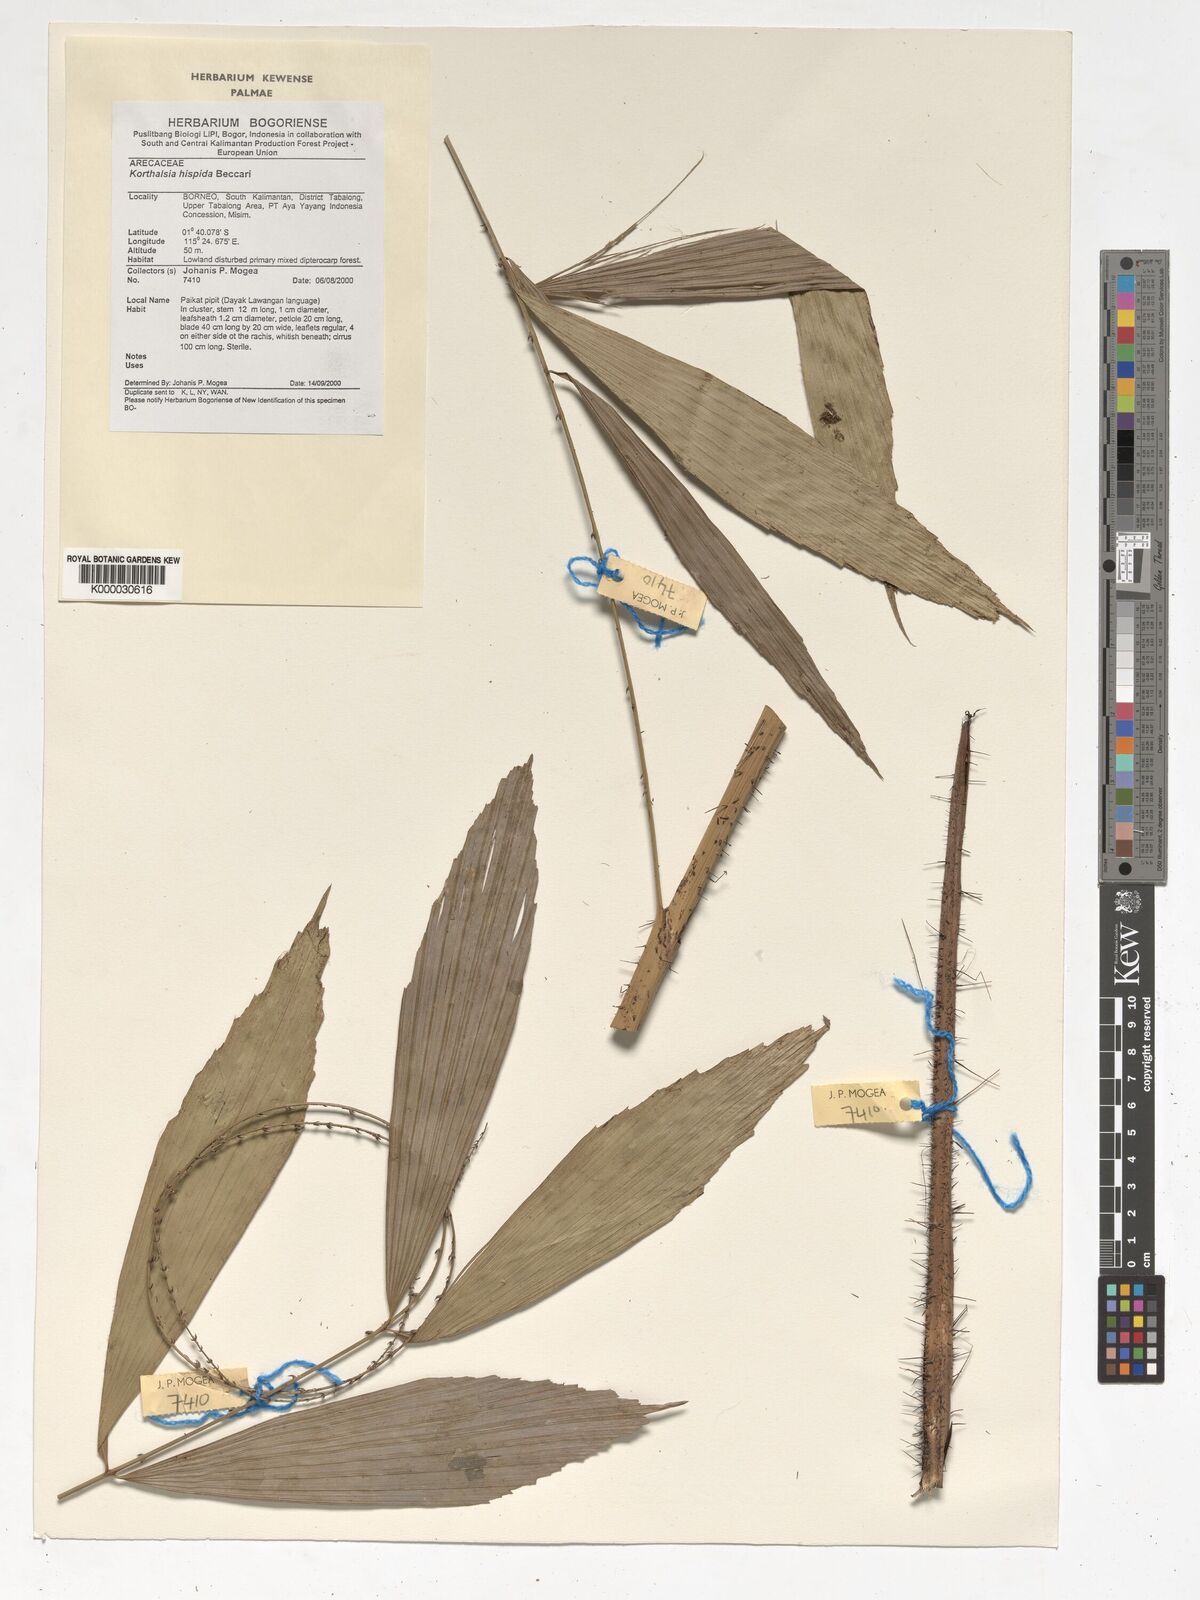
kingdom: Plantae
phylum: Tracheophyta
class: Liliopsida
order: Arecales
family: Arecaceae
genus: Korthalsia
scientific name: Korthalsia hispida
